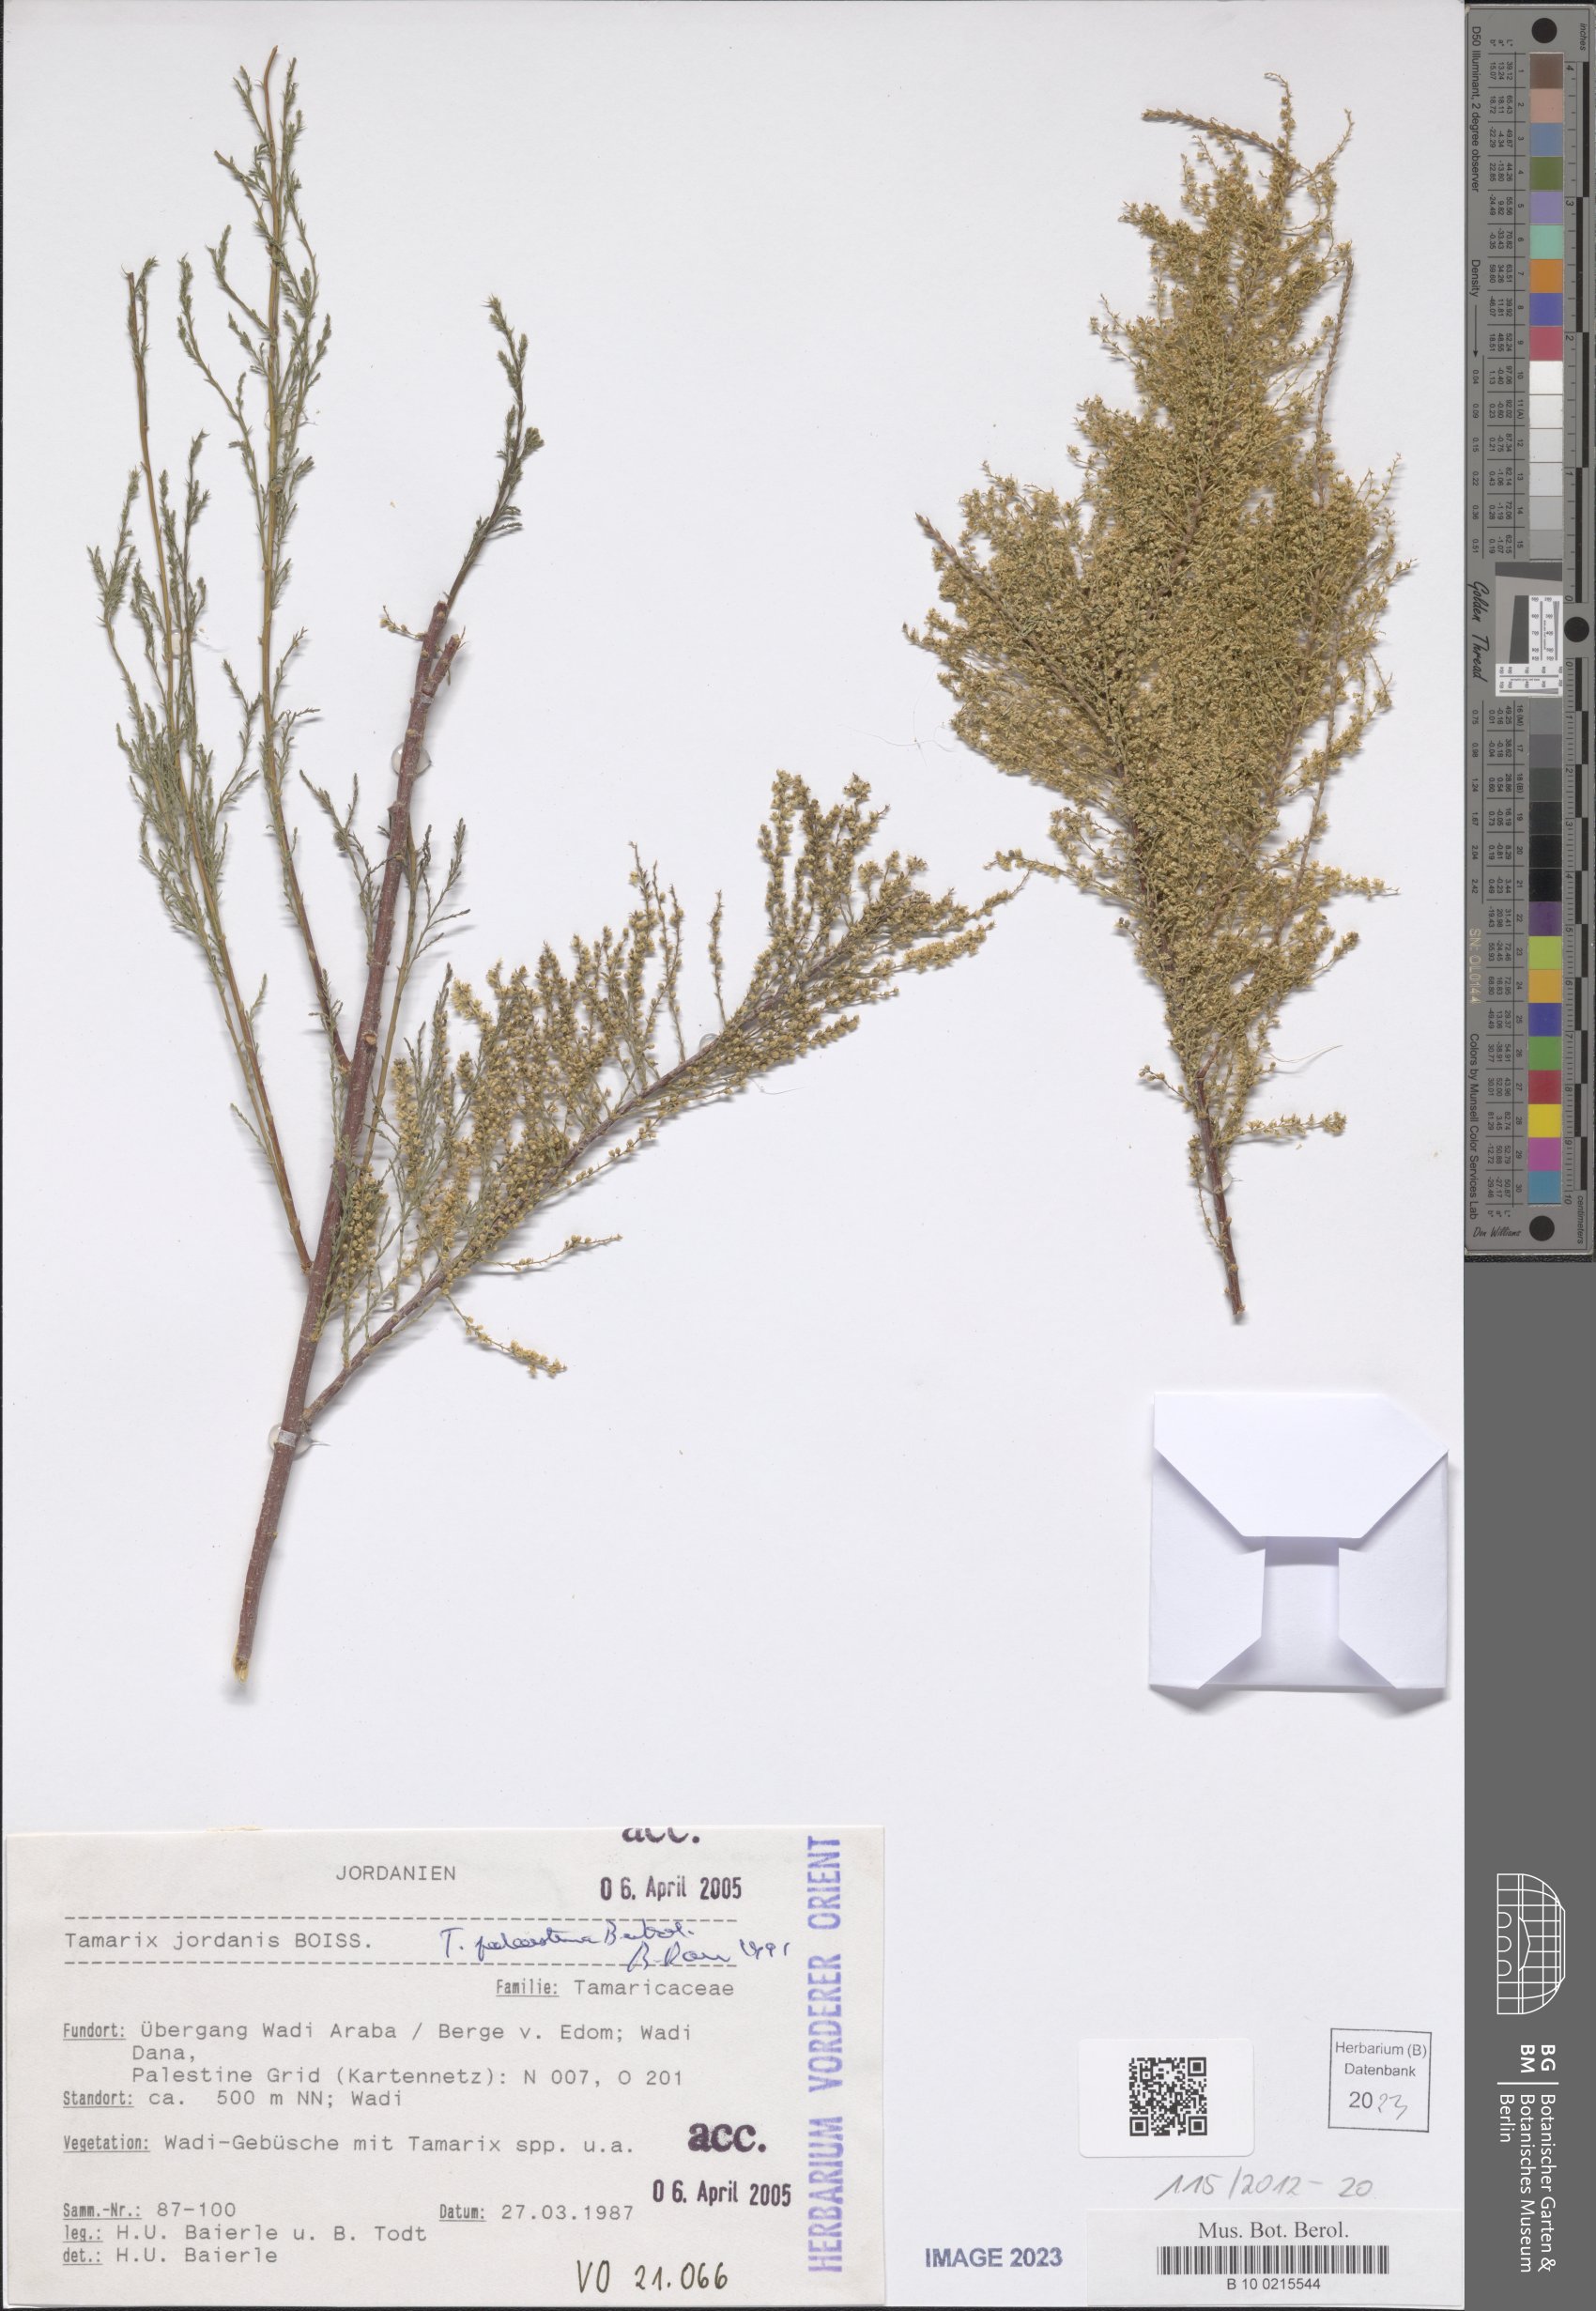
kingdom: Plantae
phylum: Tracheophyta
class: Magnoliopsida
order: Caryophyllales
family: Tamaricaceae
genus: Tamarix
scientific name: Tamarix palaestina
